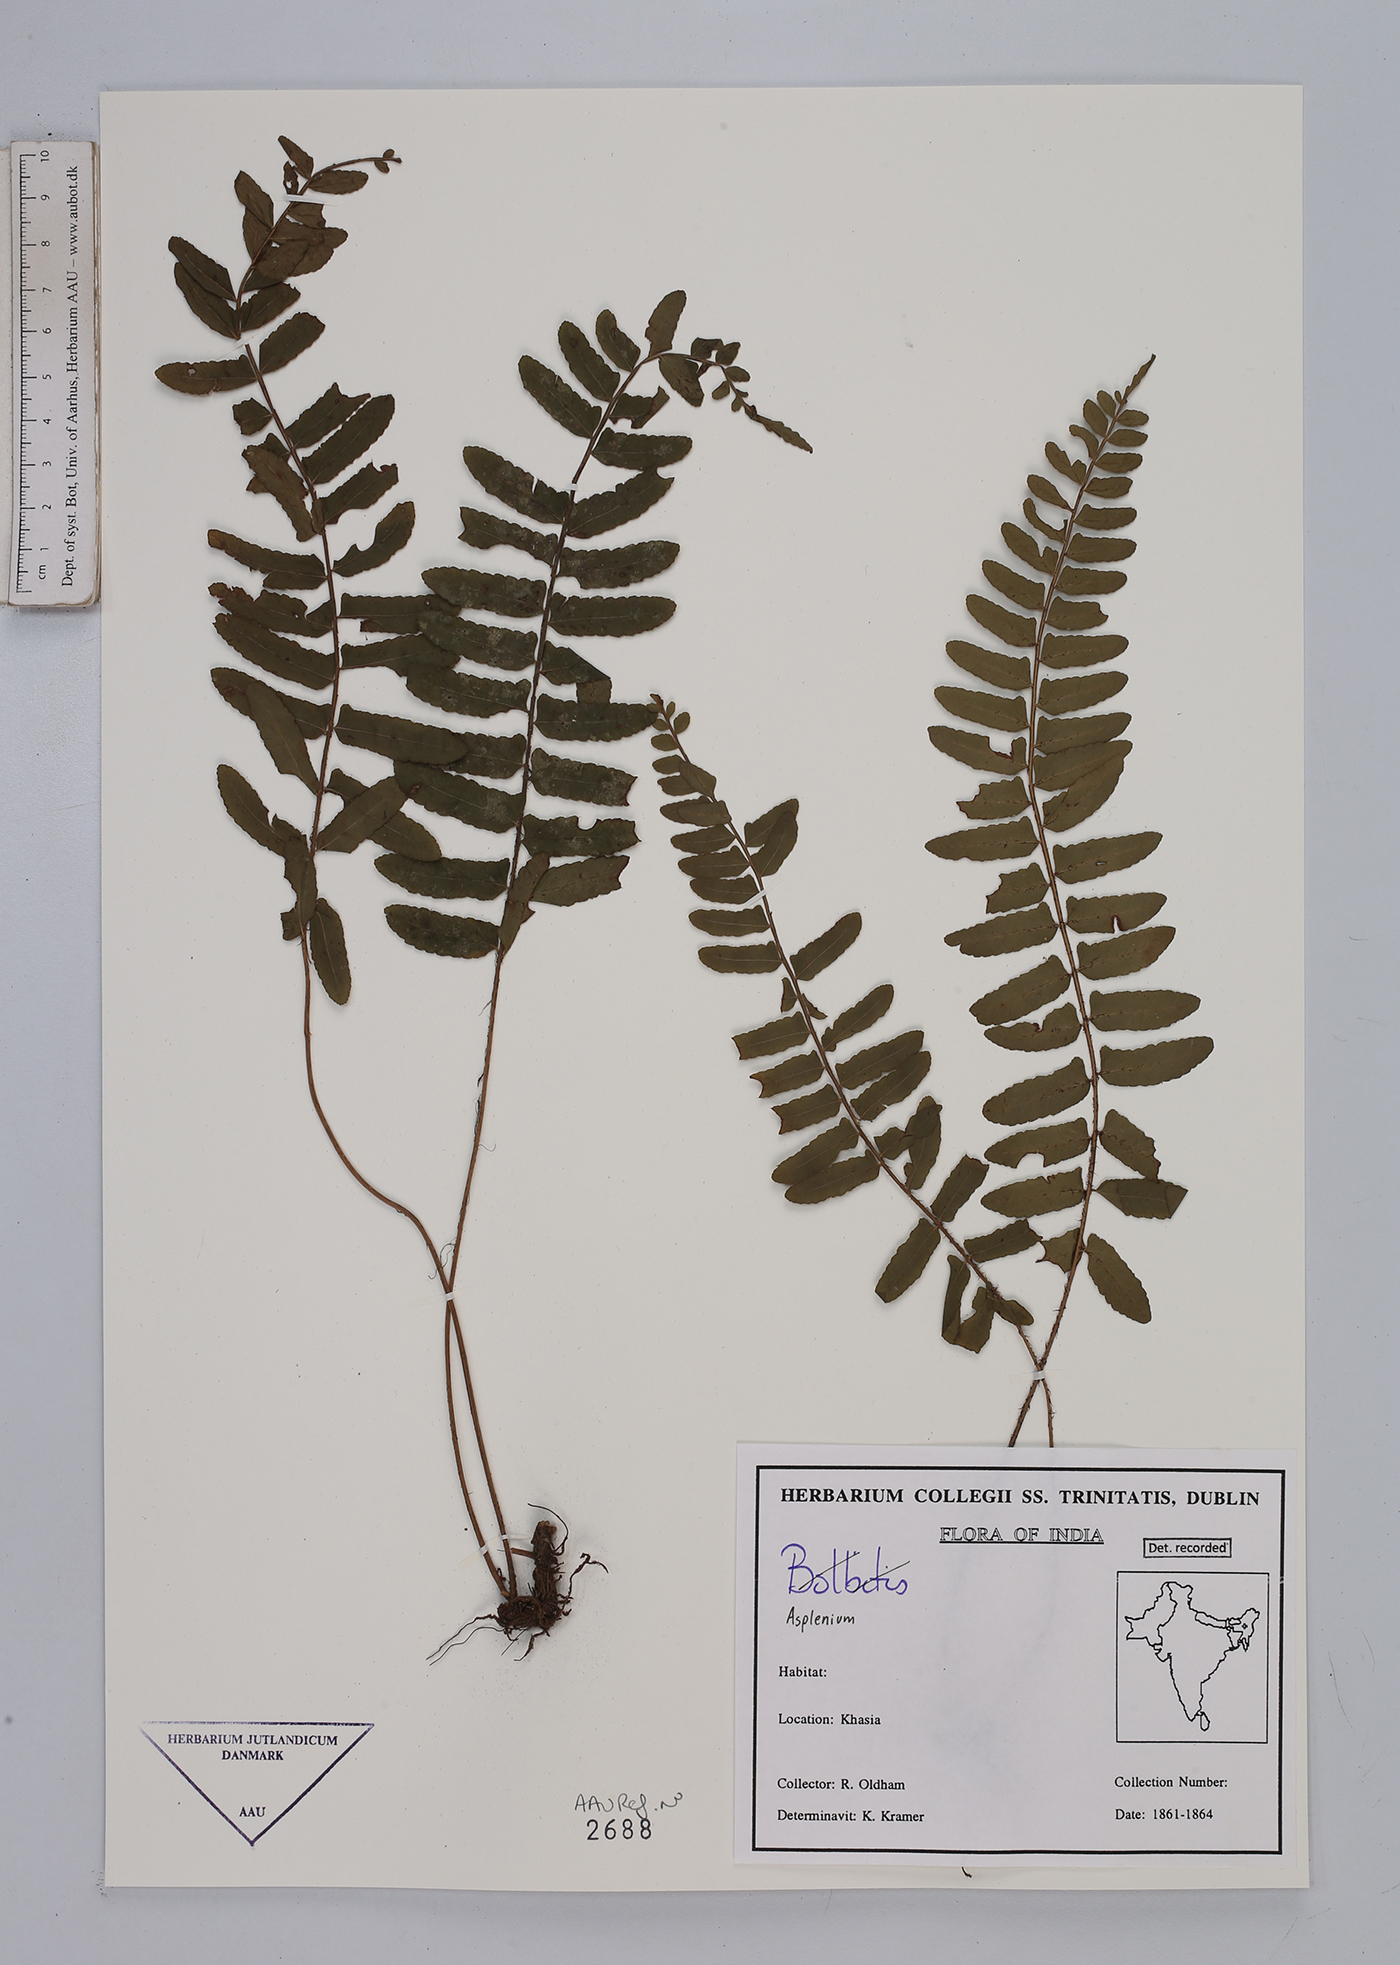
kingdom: Plantae
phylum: Tracheophyta
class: Polypodiopsida
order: Polypodiales
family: Aspleniaceae
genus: Asplenium
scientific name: Asplenium
